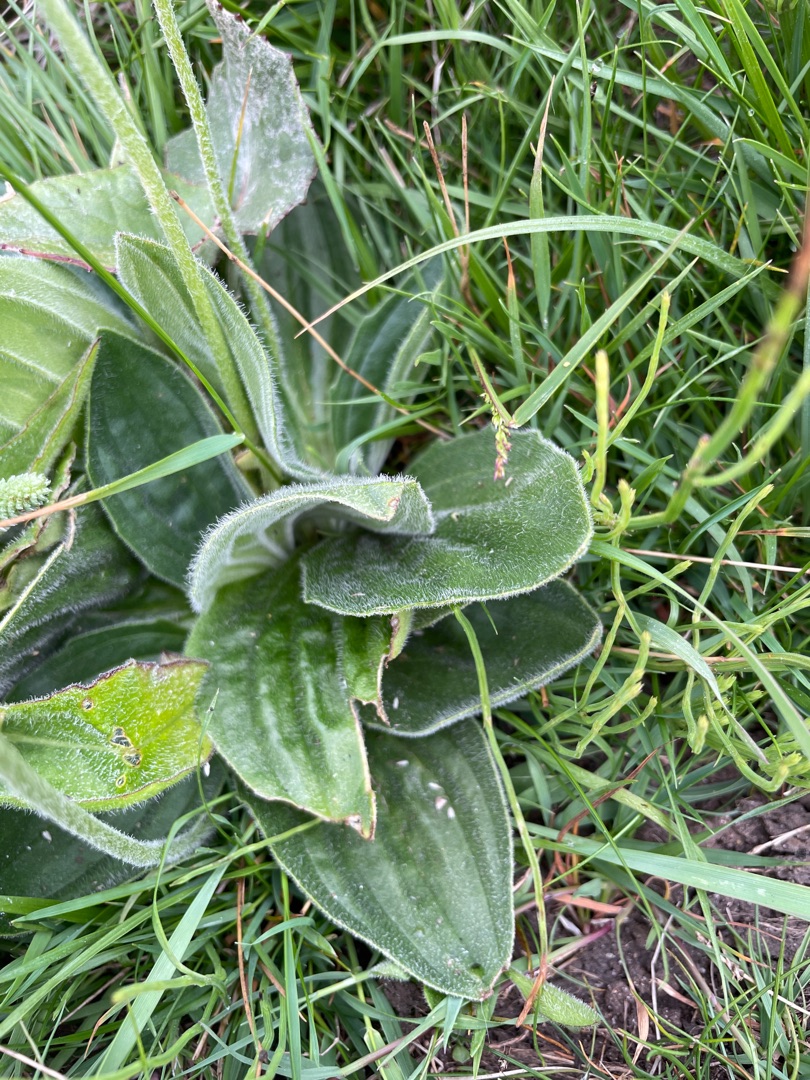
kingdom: Plantae
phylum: Tracheophyta
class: Magnoliopsida
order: Lamiales
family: Plantaginaceae
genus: Plantago
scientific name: Plantago media
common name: Dunet vejbred
